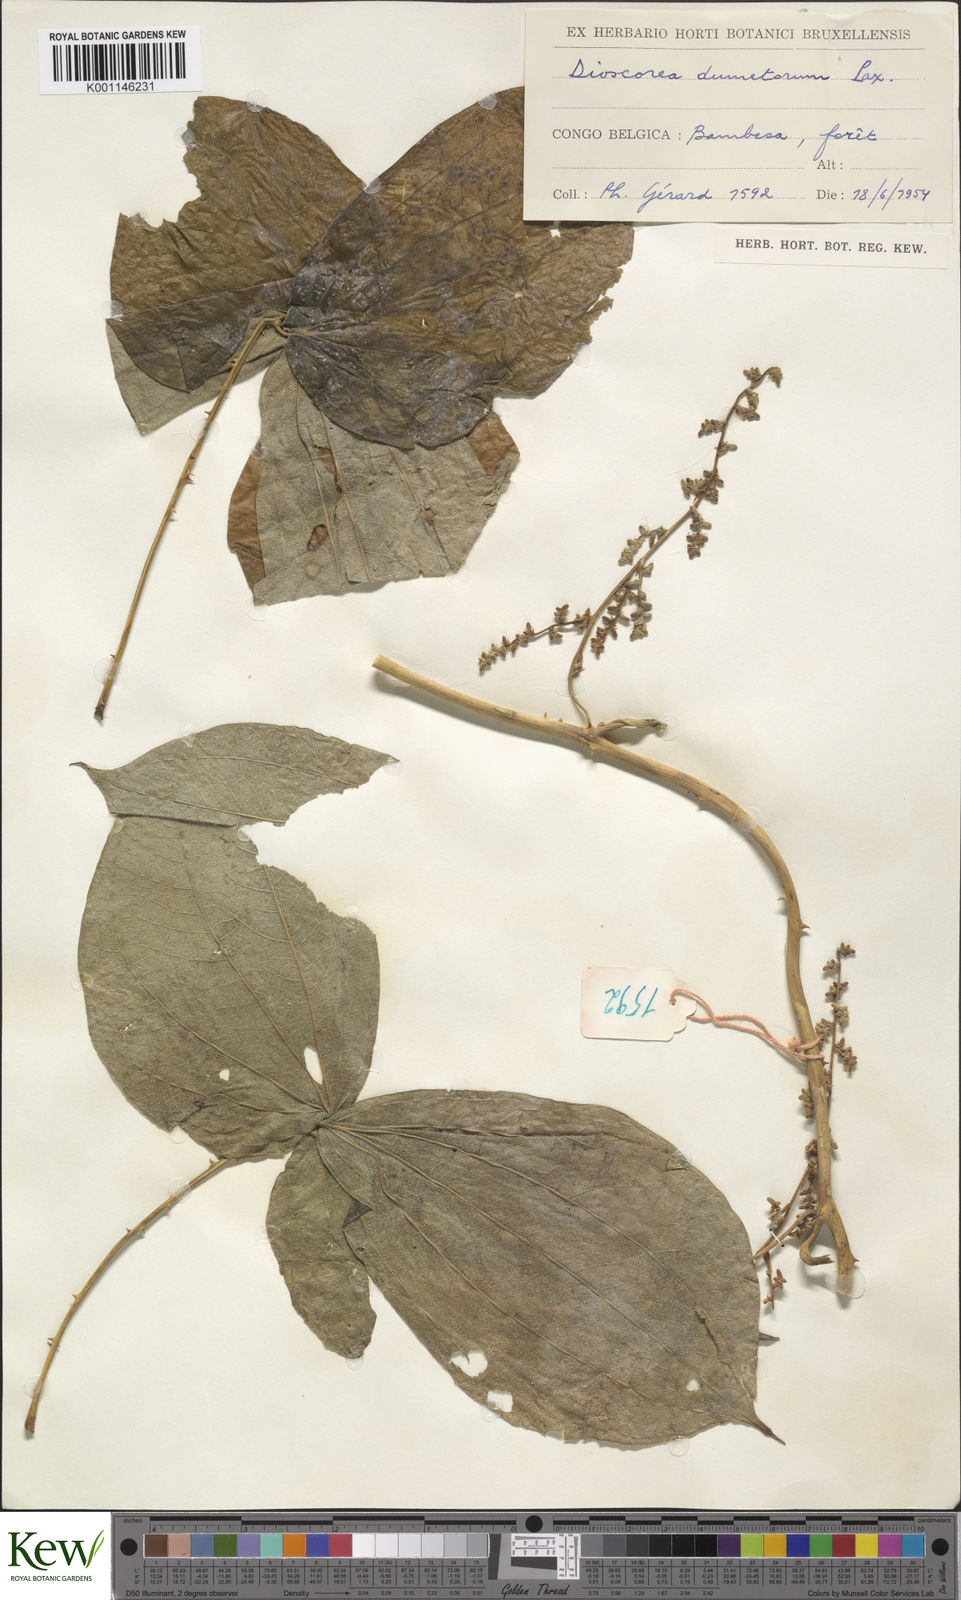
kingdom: Plantae
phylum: Tracheophyta
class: Liliopsida
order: Dioscoreales
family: Dioscoreaceae
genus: Dioscorea
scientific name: Dioscorea dumetorum
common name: African bitter yam
